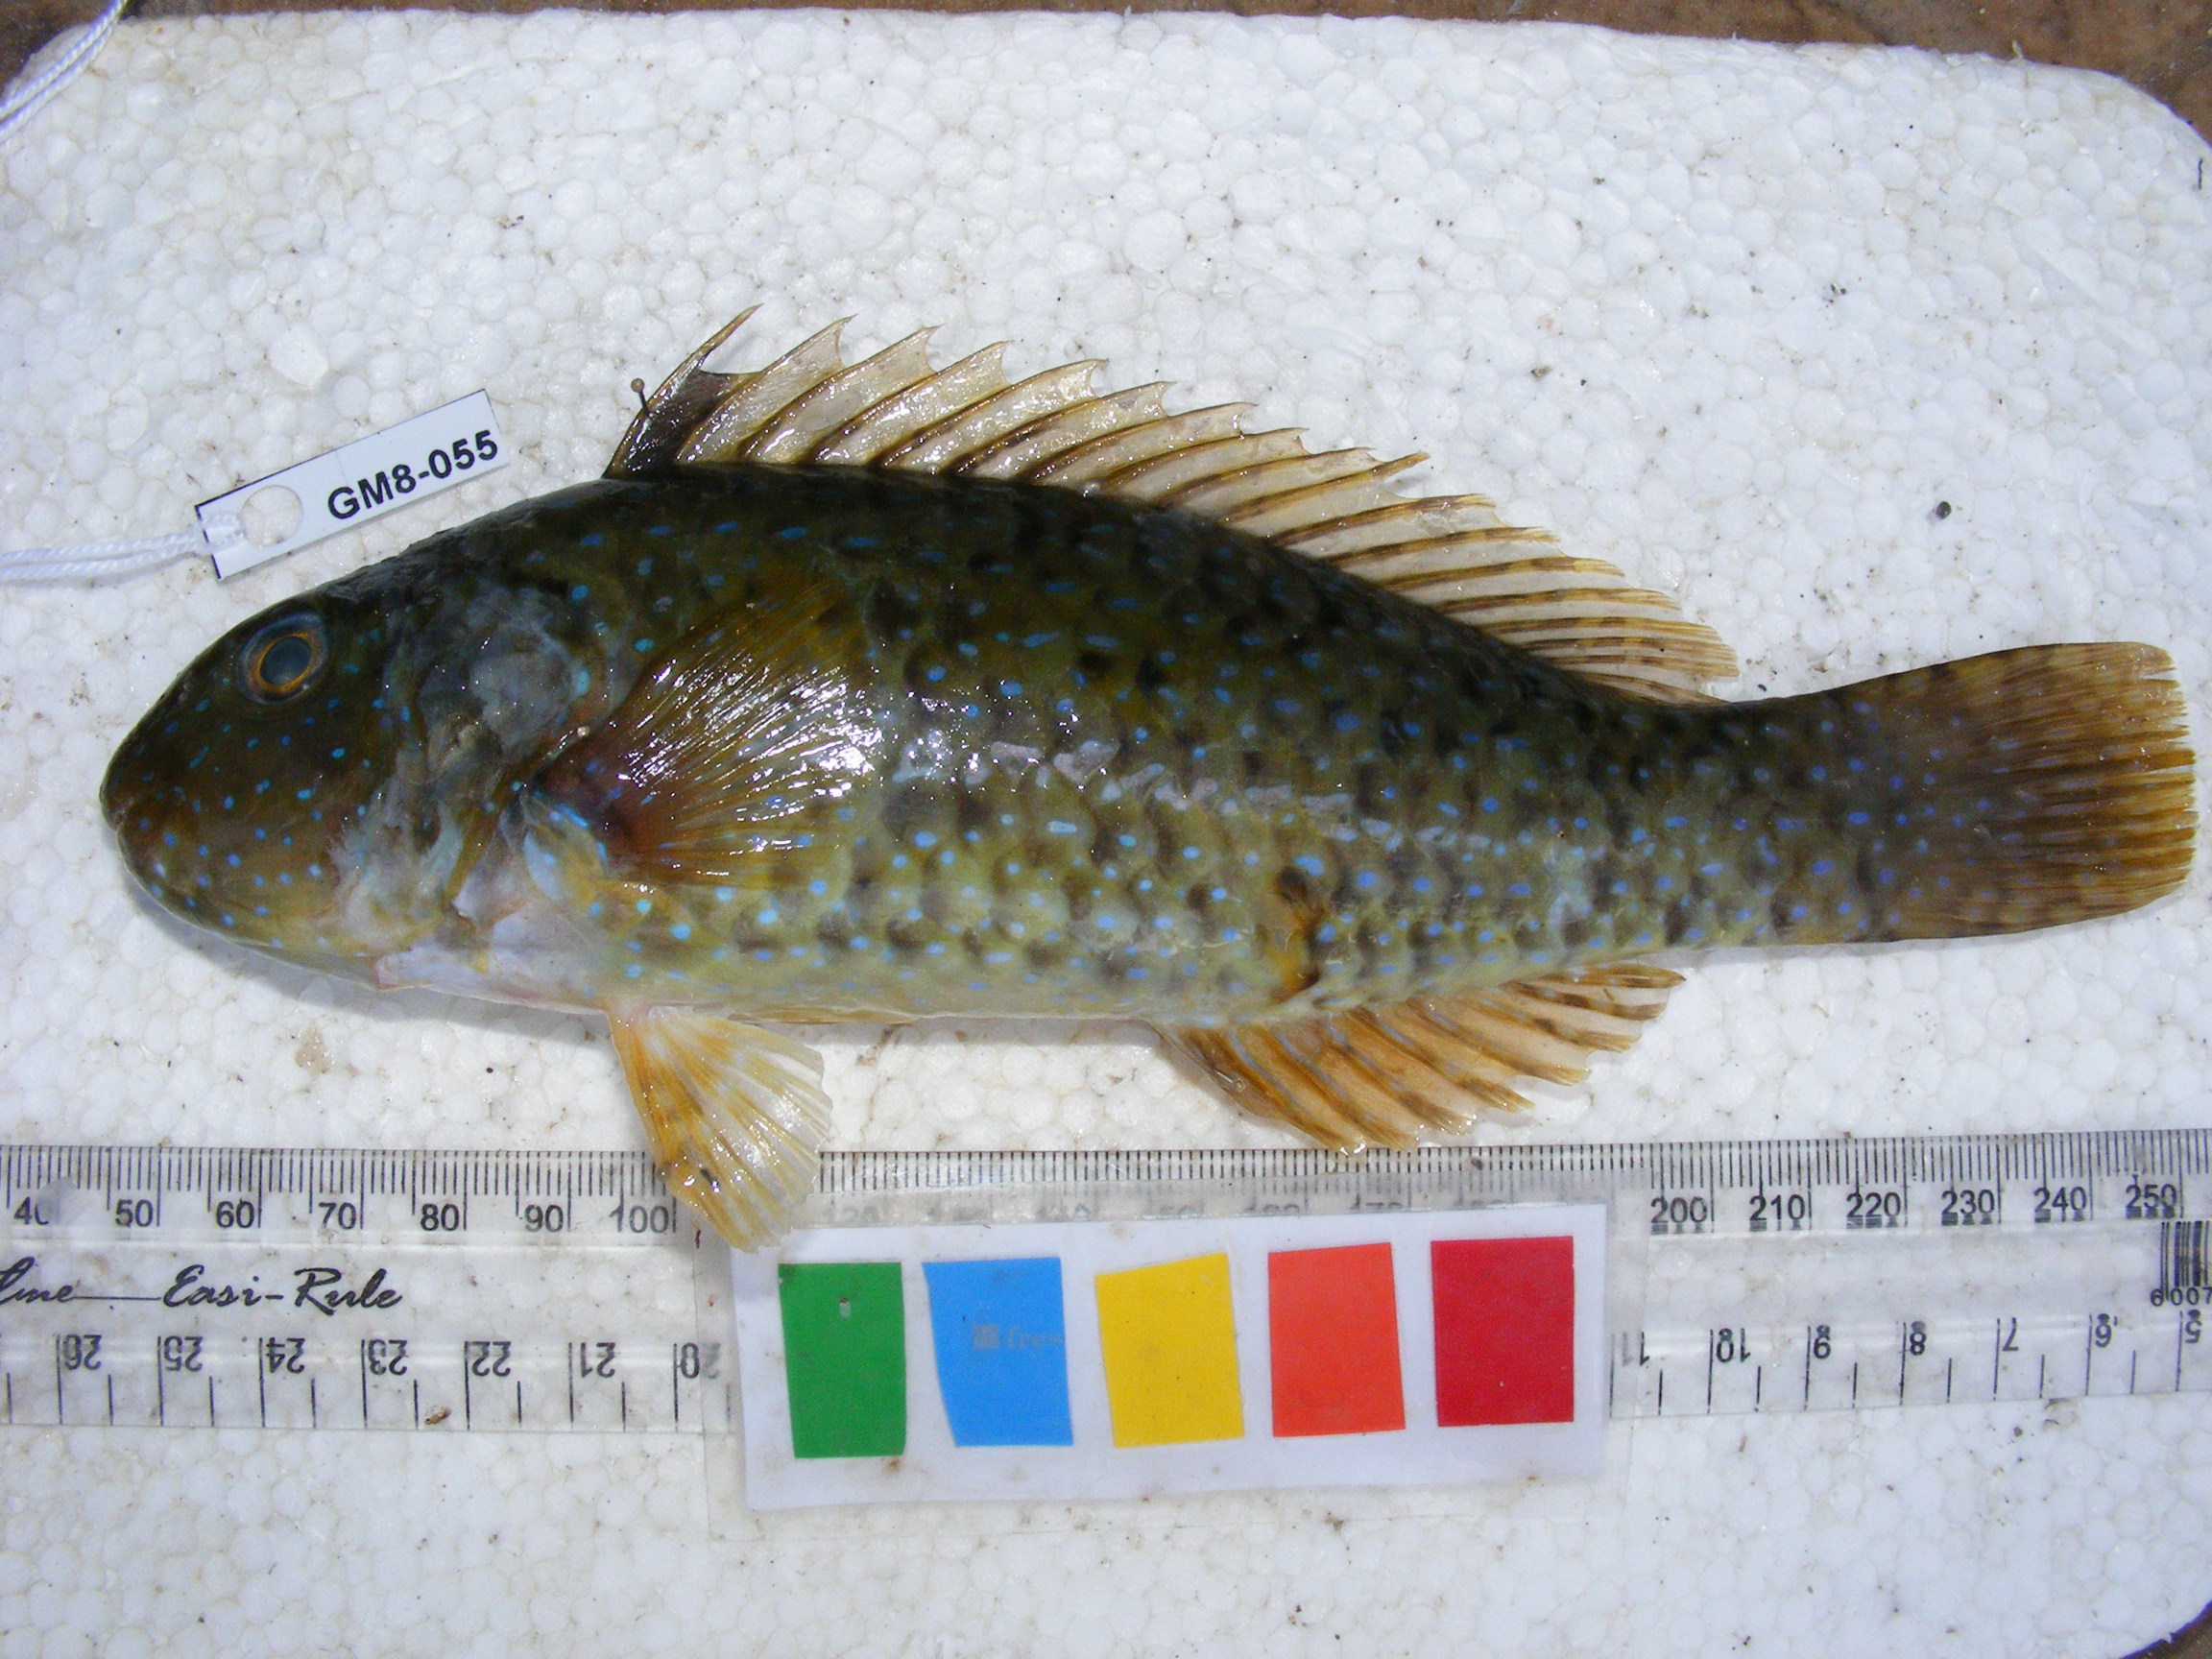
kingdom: Animalia
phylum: Chordata
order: Perciformes
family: Scaridae
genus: Leptoscarus
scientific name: Leptoscarus vaigiensis
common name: Marbled parrotfish
